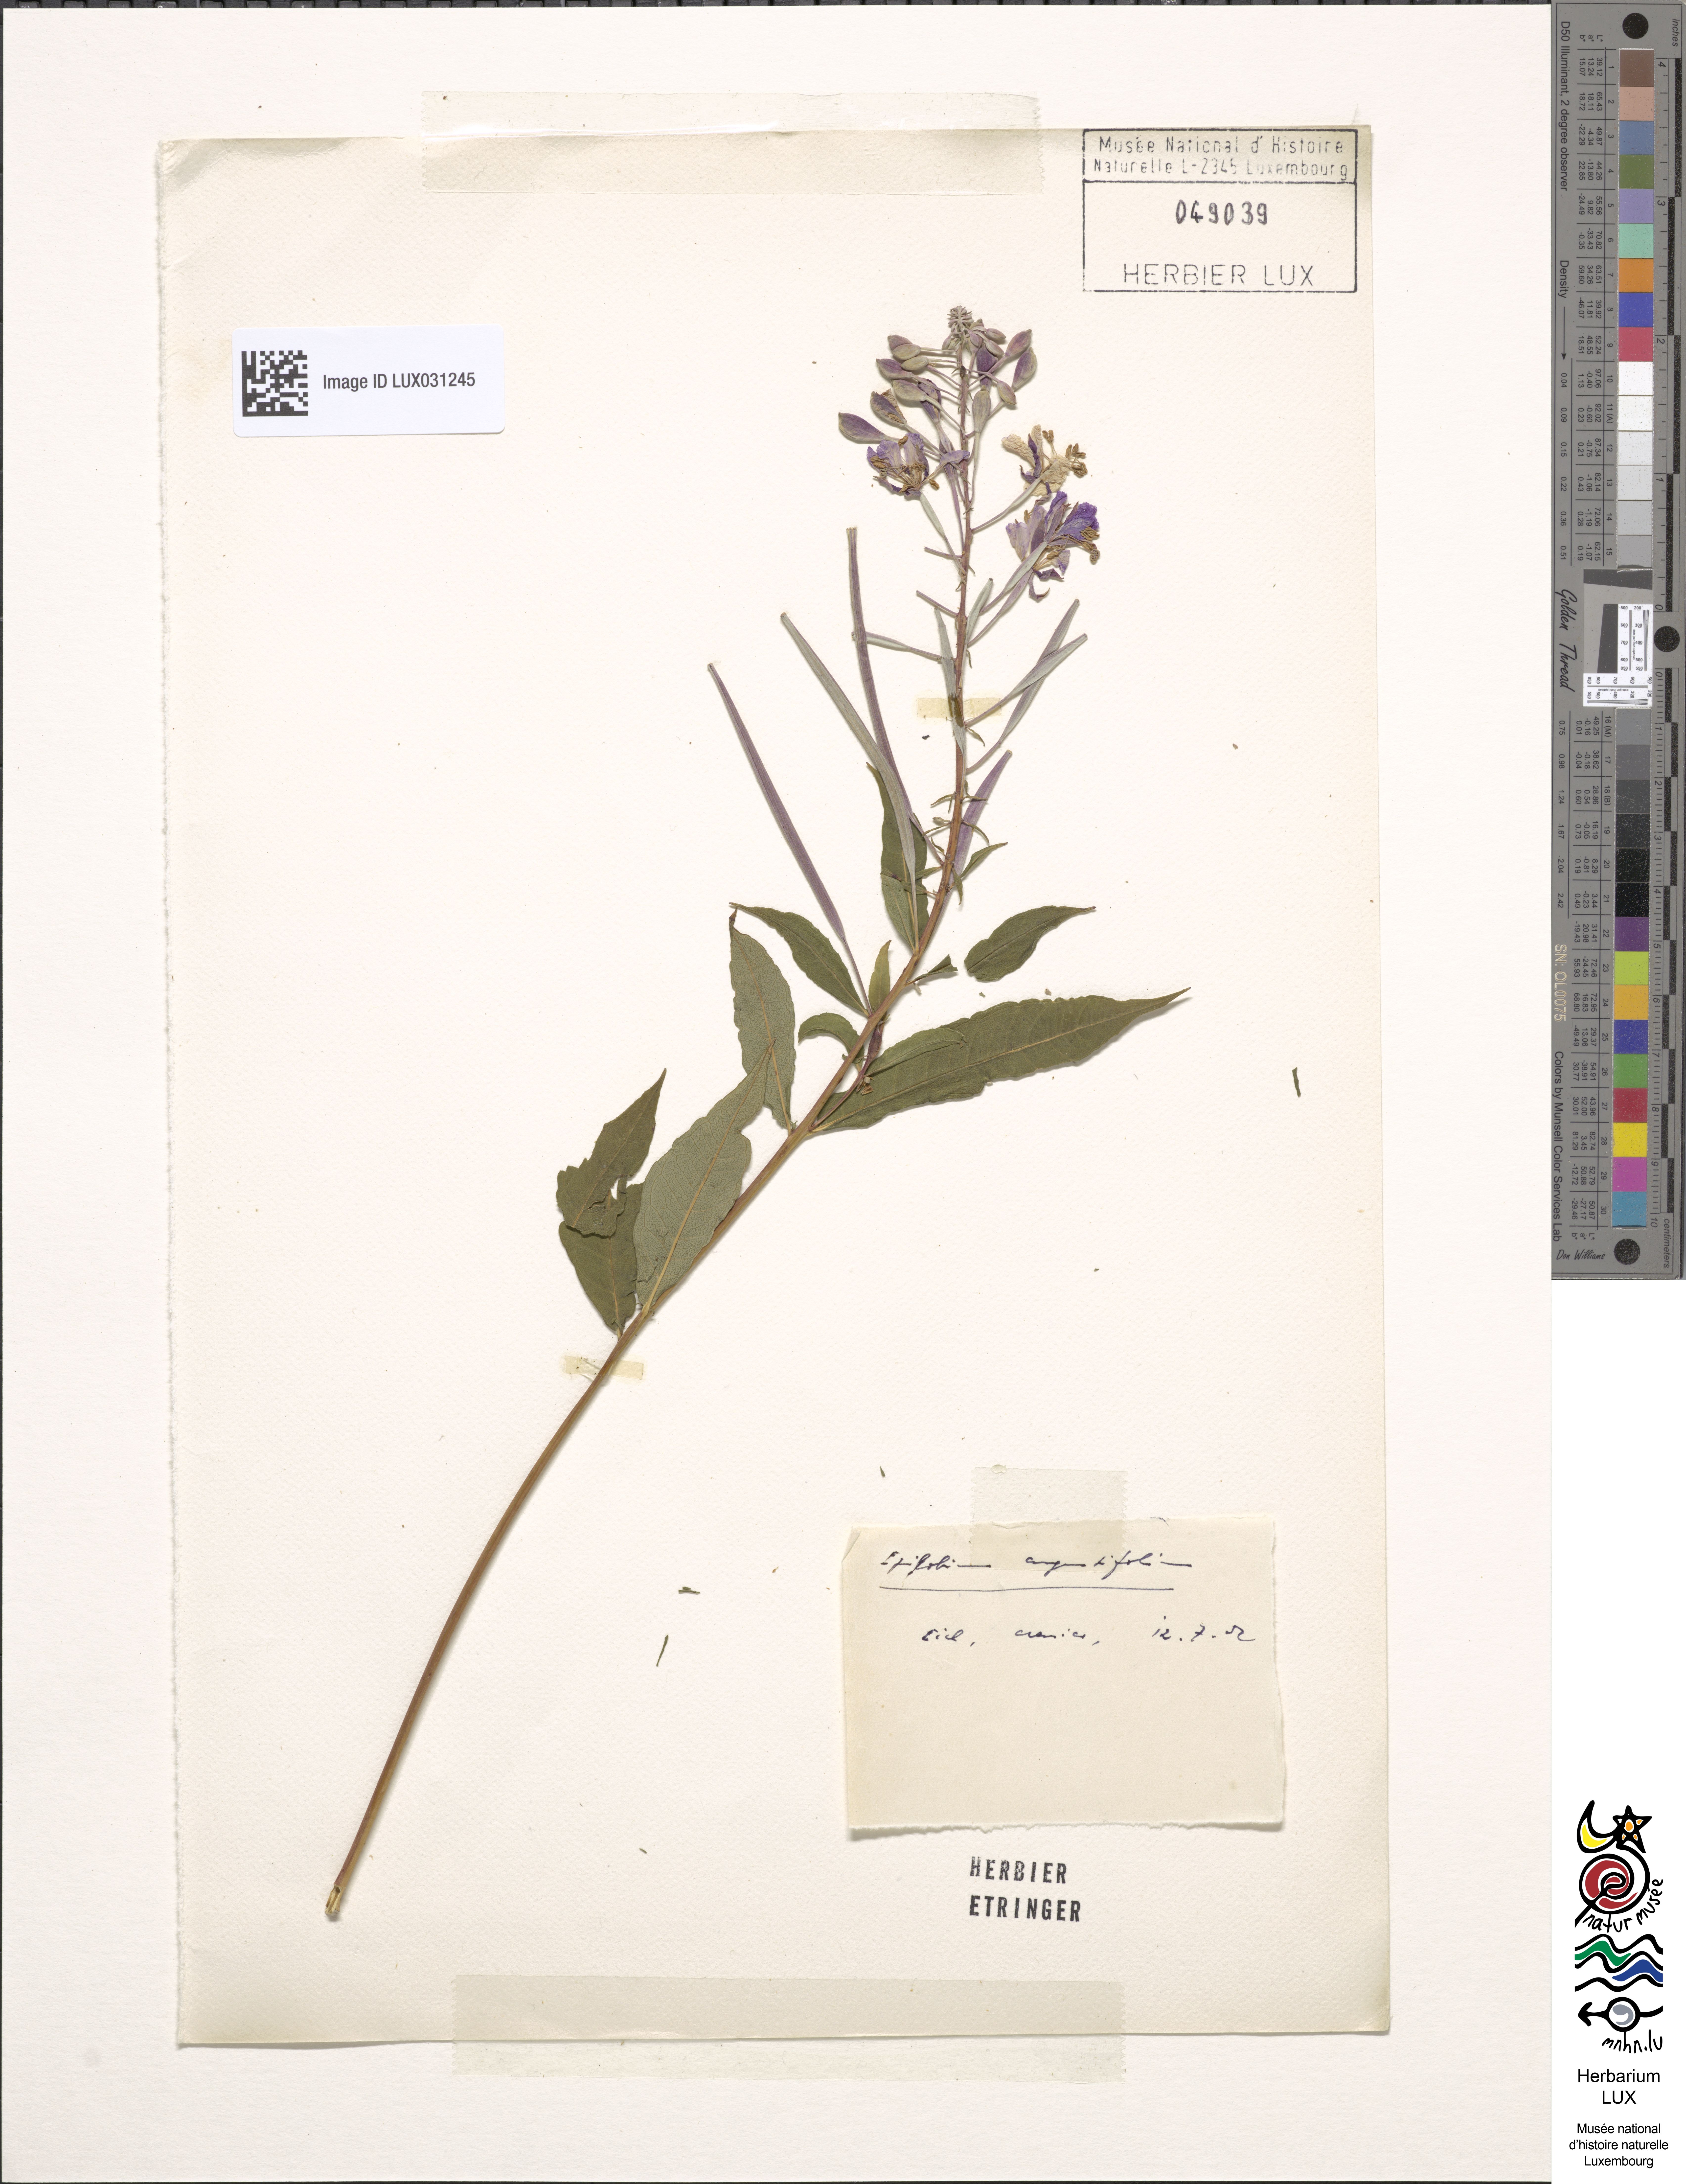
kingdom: Plantae
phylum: Tracheophyta
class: Magnoliopsida
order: Myrtales
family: Onagraceae
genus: Chamaenerion
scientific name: Chamaenerion angustifolium
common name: Fireweed
